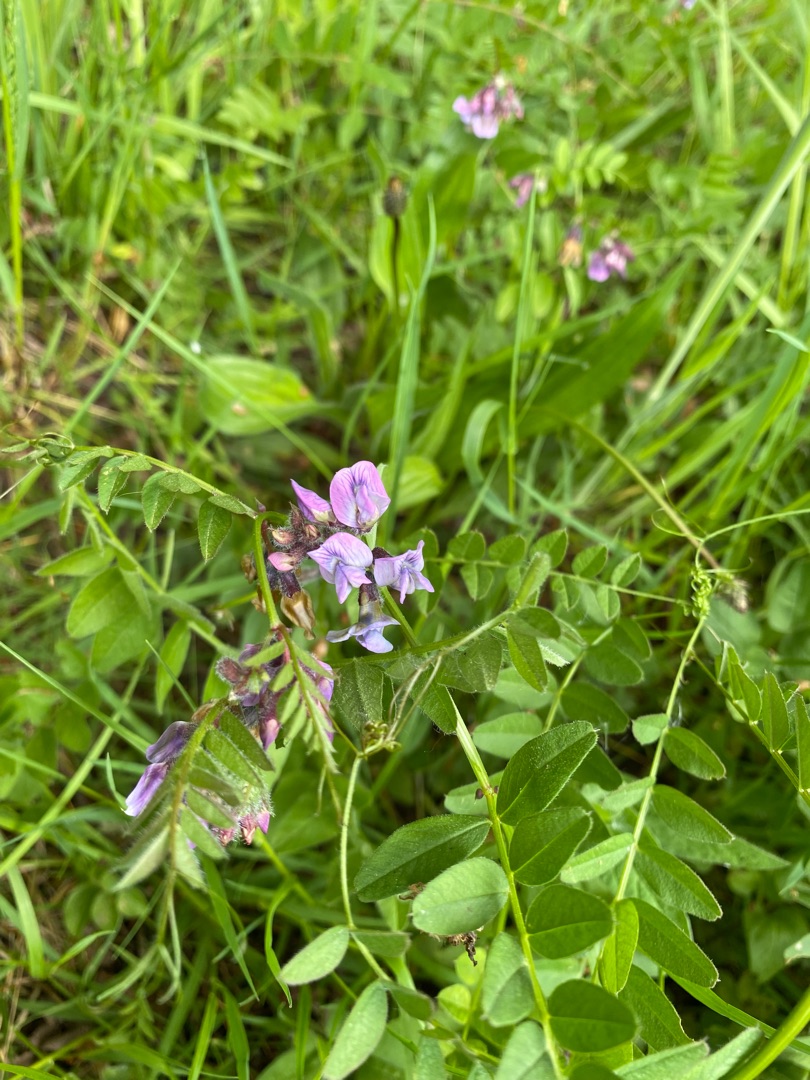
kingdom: Plantae
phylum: Tracheophyta
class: Magnoliopsida
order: Fabales
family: Fabaceae
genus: Vicia
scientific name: Vicia sepium
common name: Gærde-vikke
